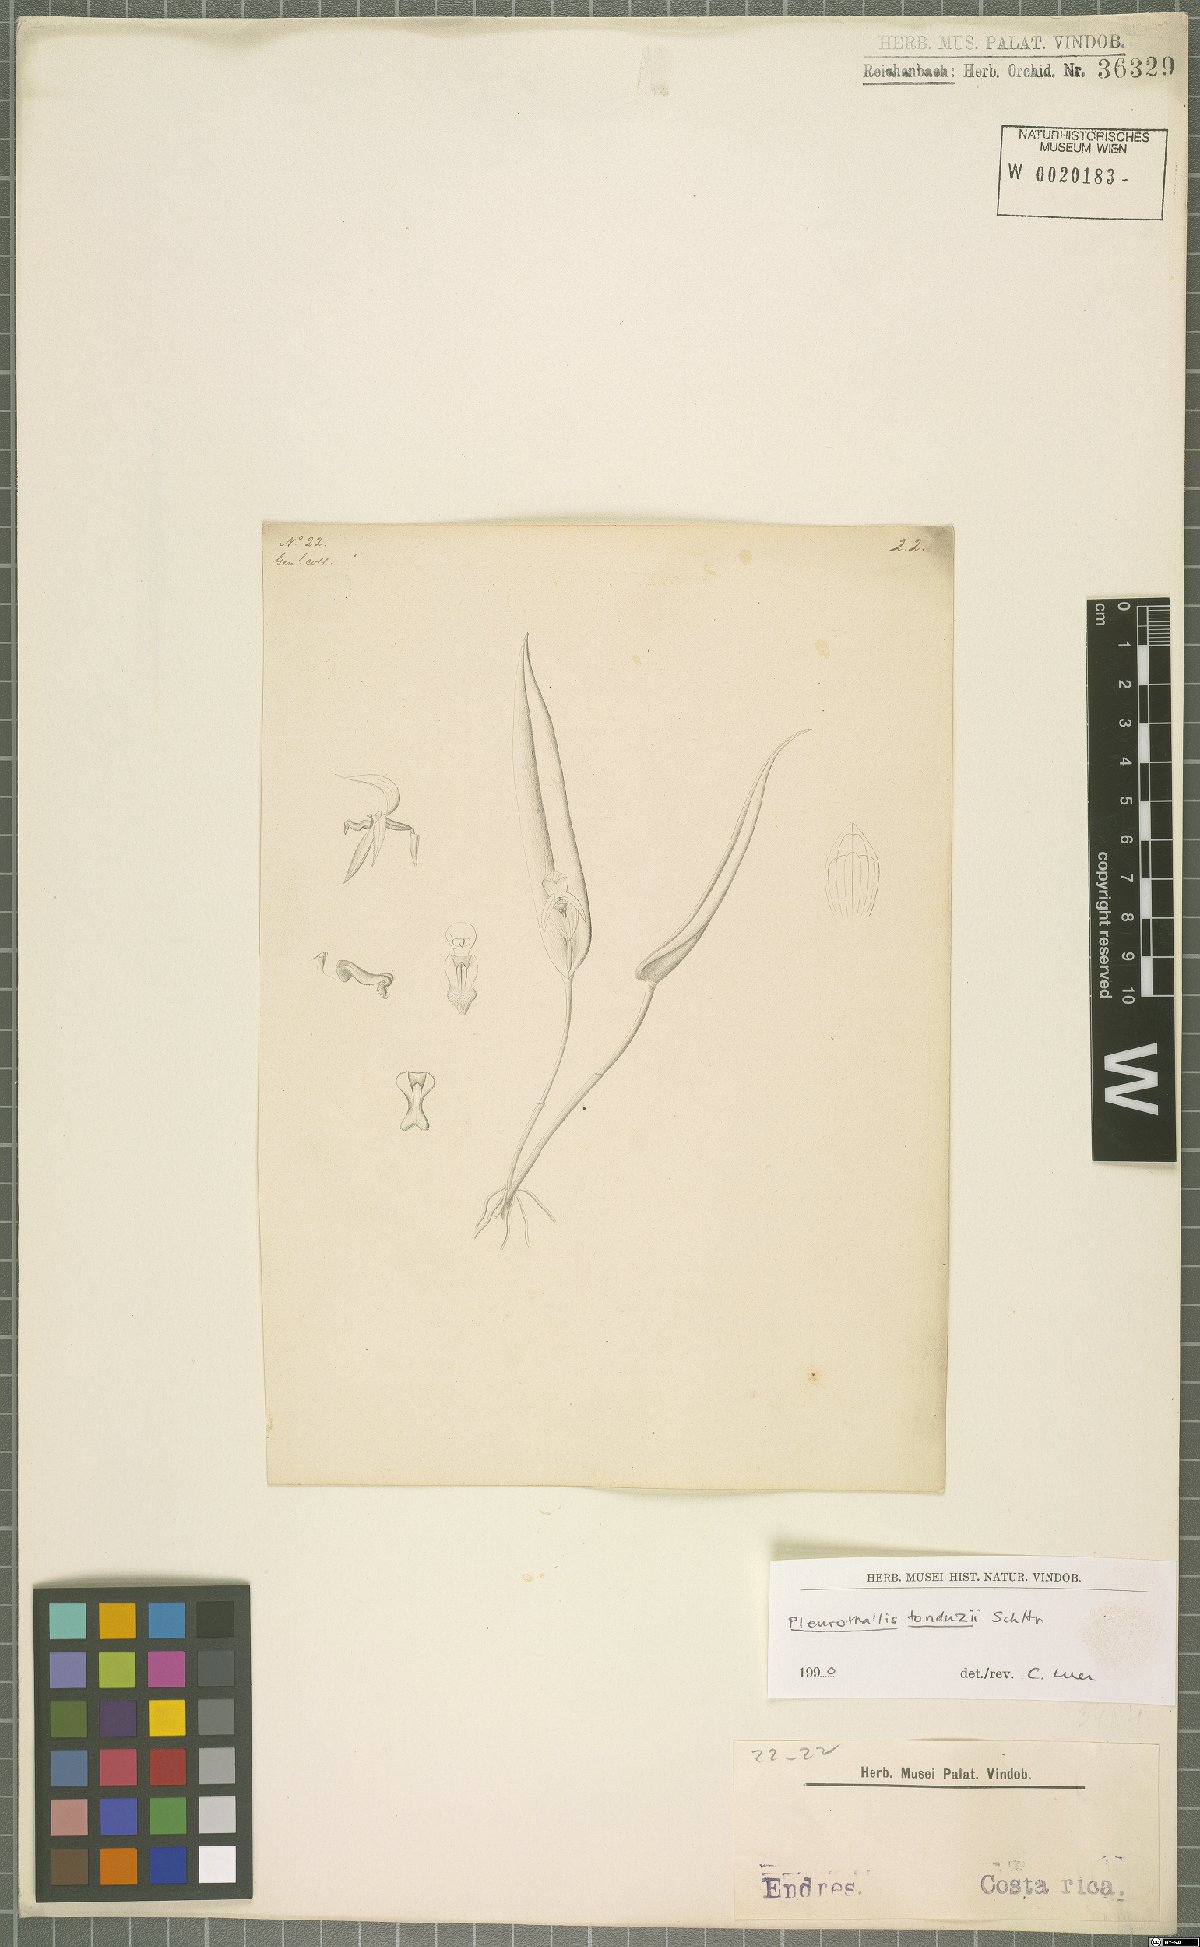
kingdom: Plantae
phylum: Tracheophyta
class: Liliopsida
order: Asparagales
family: Orchidaceae
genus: Pleurothallis
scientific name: Pleurothallis tonduzii
